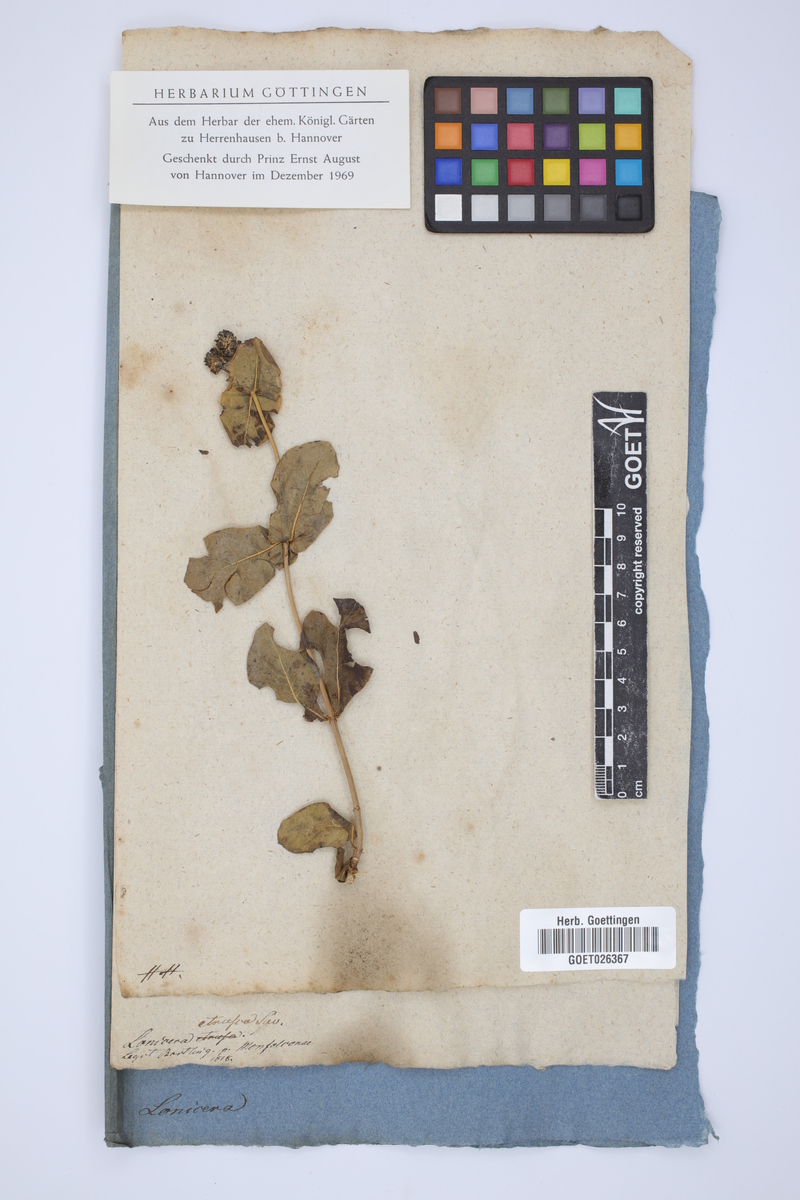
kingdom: Plantae
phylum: Tracheophyta
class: Magnoliopsida
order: Dipsacales
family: Caprifoliaceae
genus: Lonicera
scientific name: Lonicera etrusca
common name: Etruscan honeysuckle
